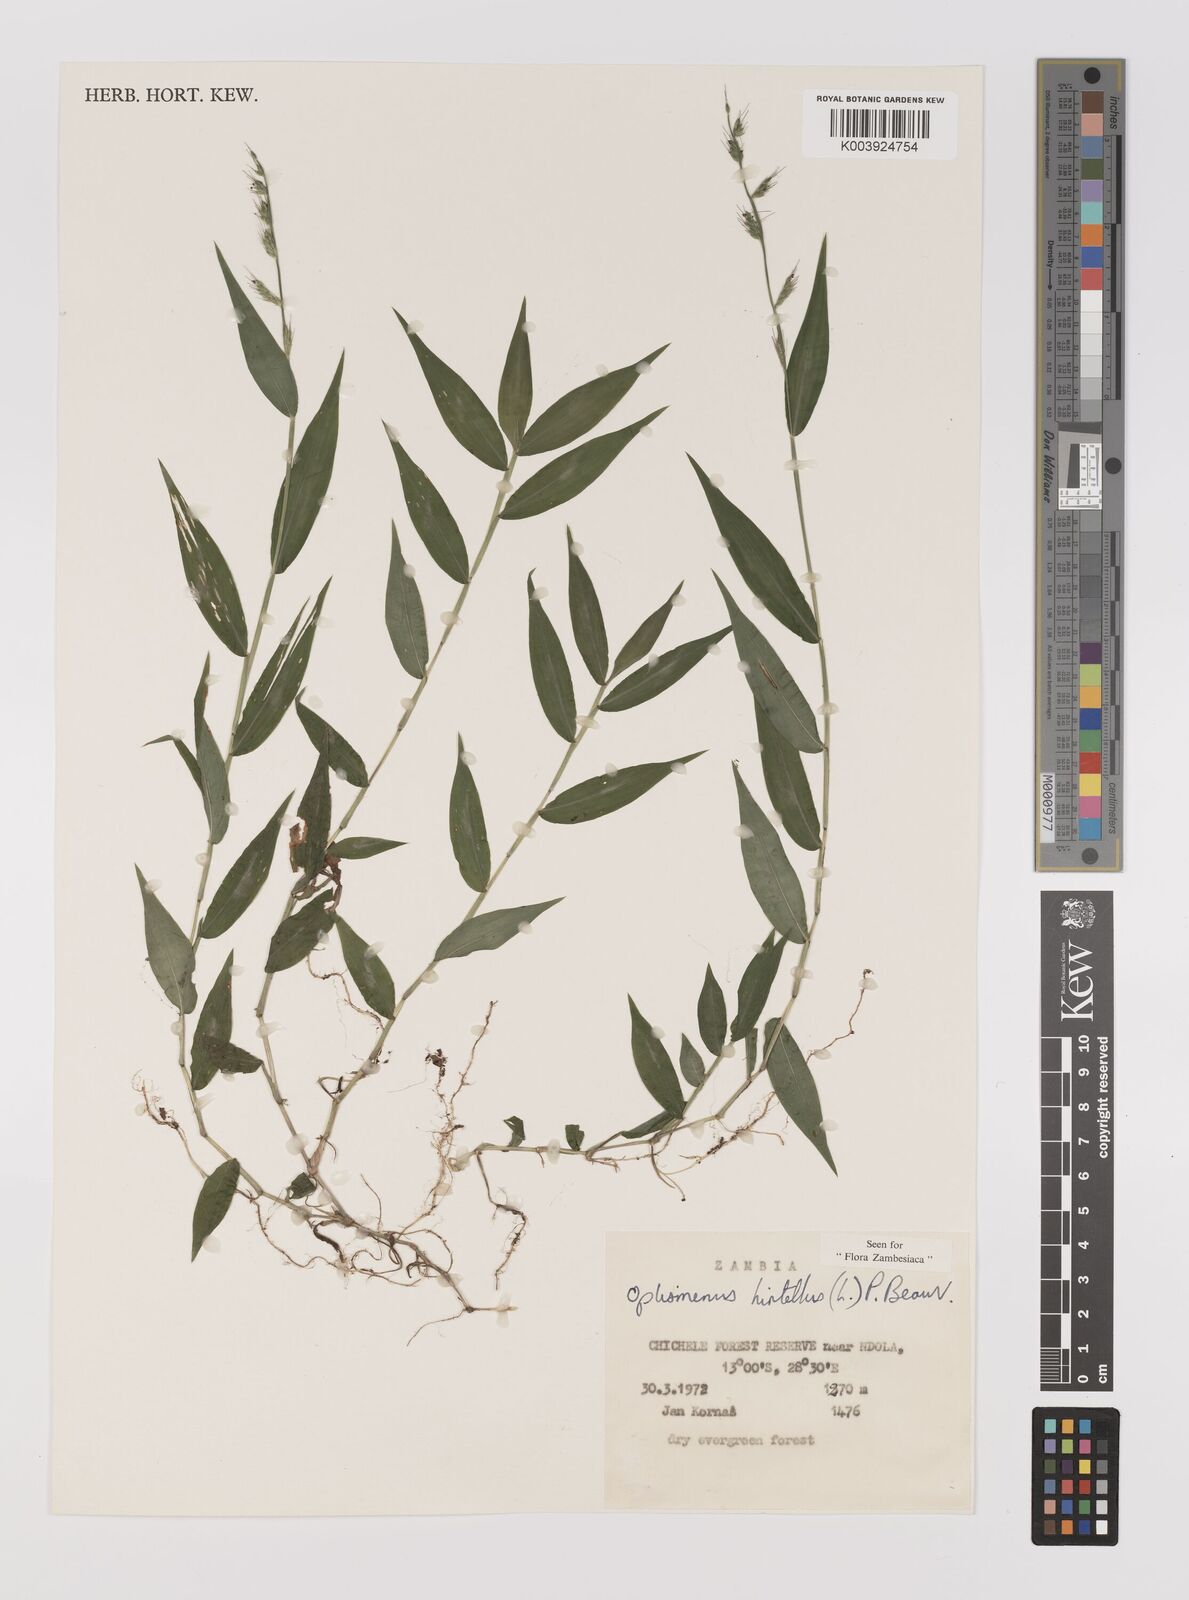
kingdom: Plantae
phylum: Tracheophyta
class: Liliopsida
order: Poales
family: Poaceae
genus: Oplismenus
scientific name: Oplismenus hirtellus
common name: Basketgrass
